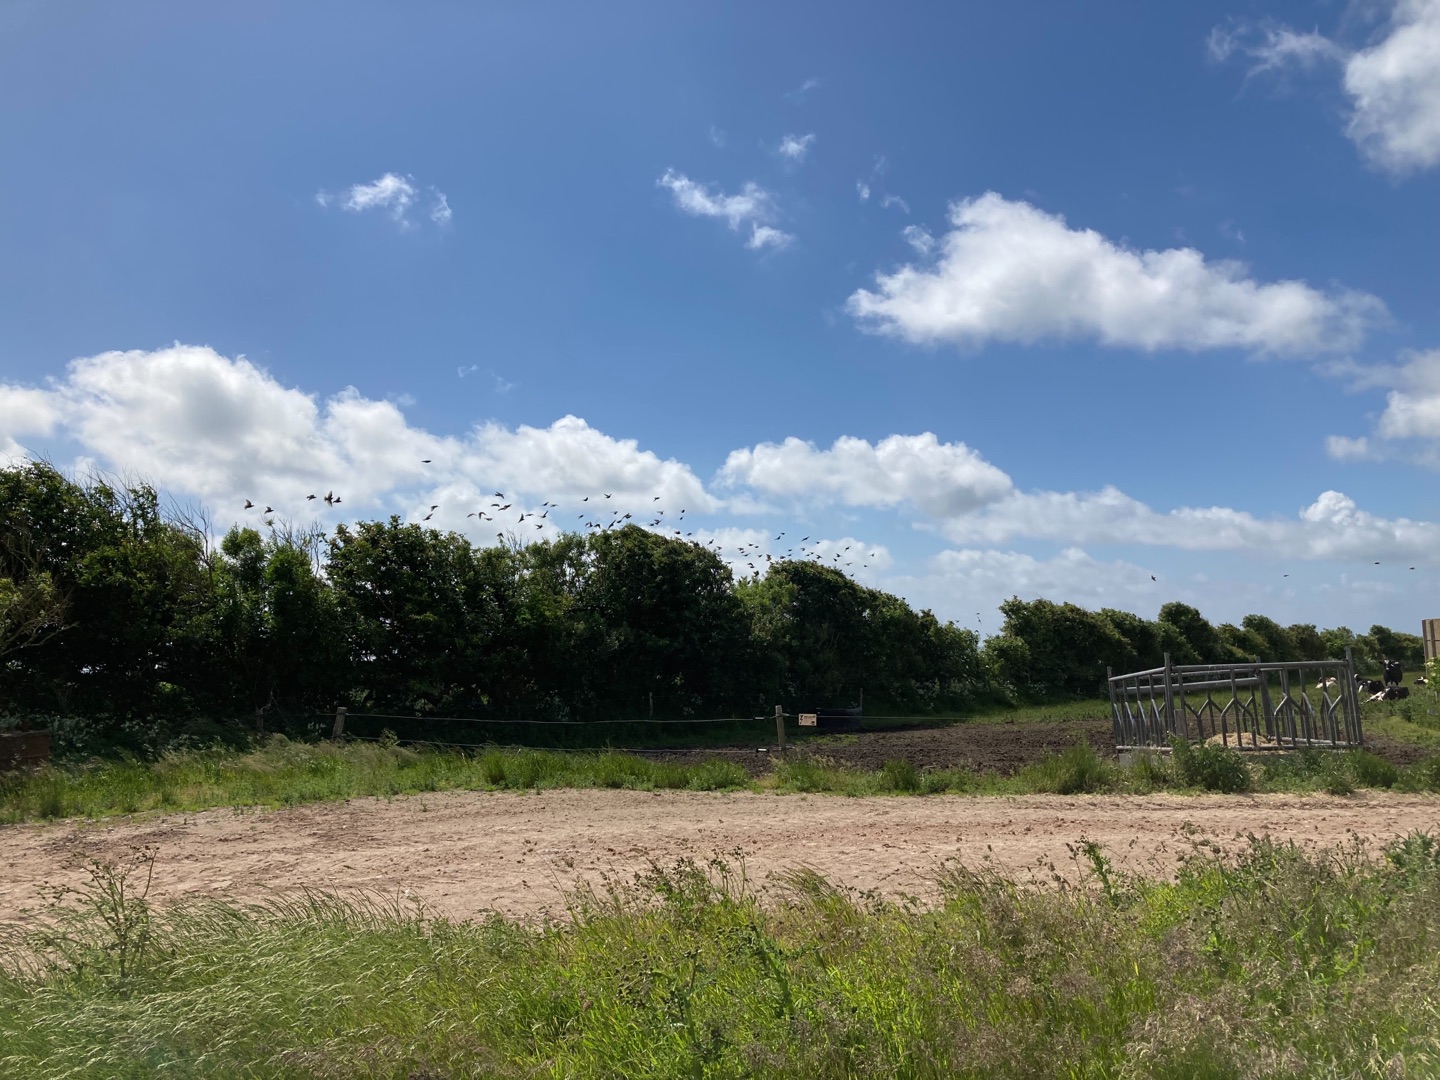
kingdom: Animalia
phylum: Chordata
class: Aves
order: Passeriformes
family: Sturnidae
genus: Sturnus
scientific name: Sturnus vulgaris
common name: Stær
